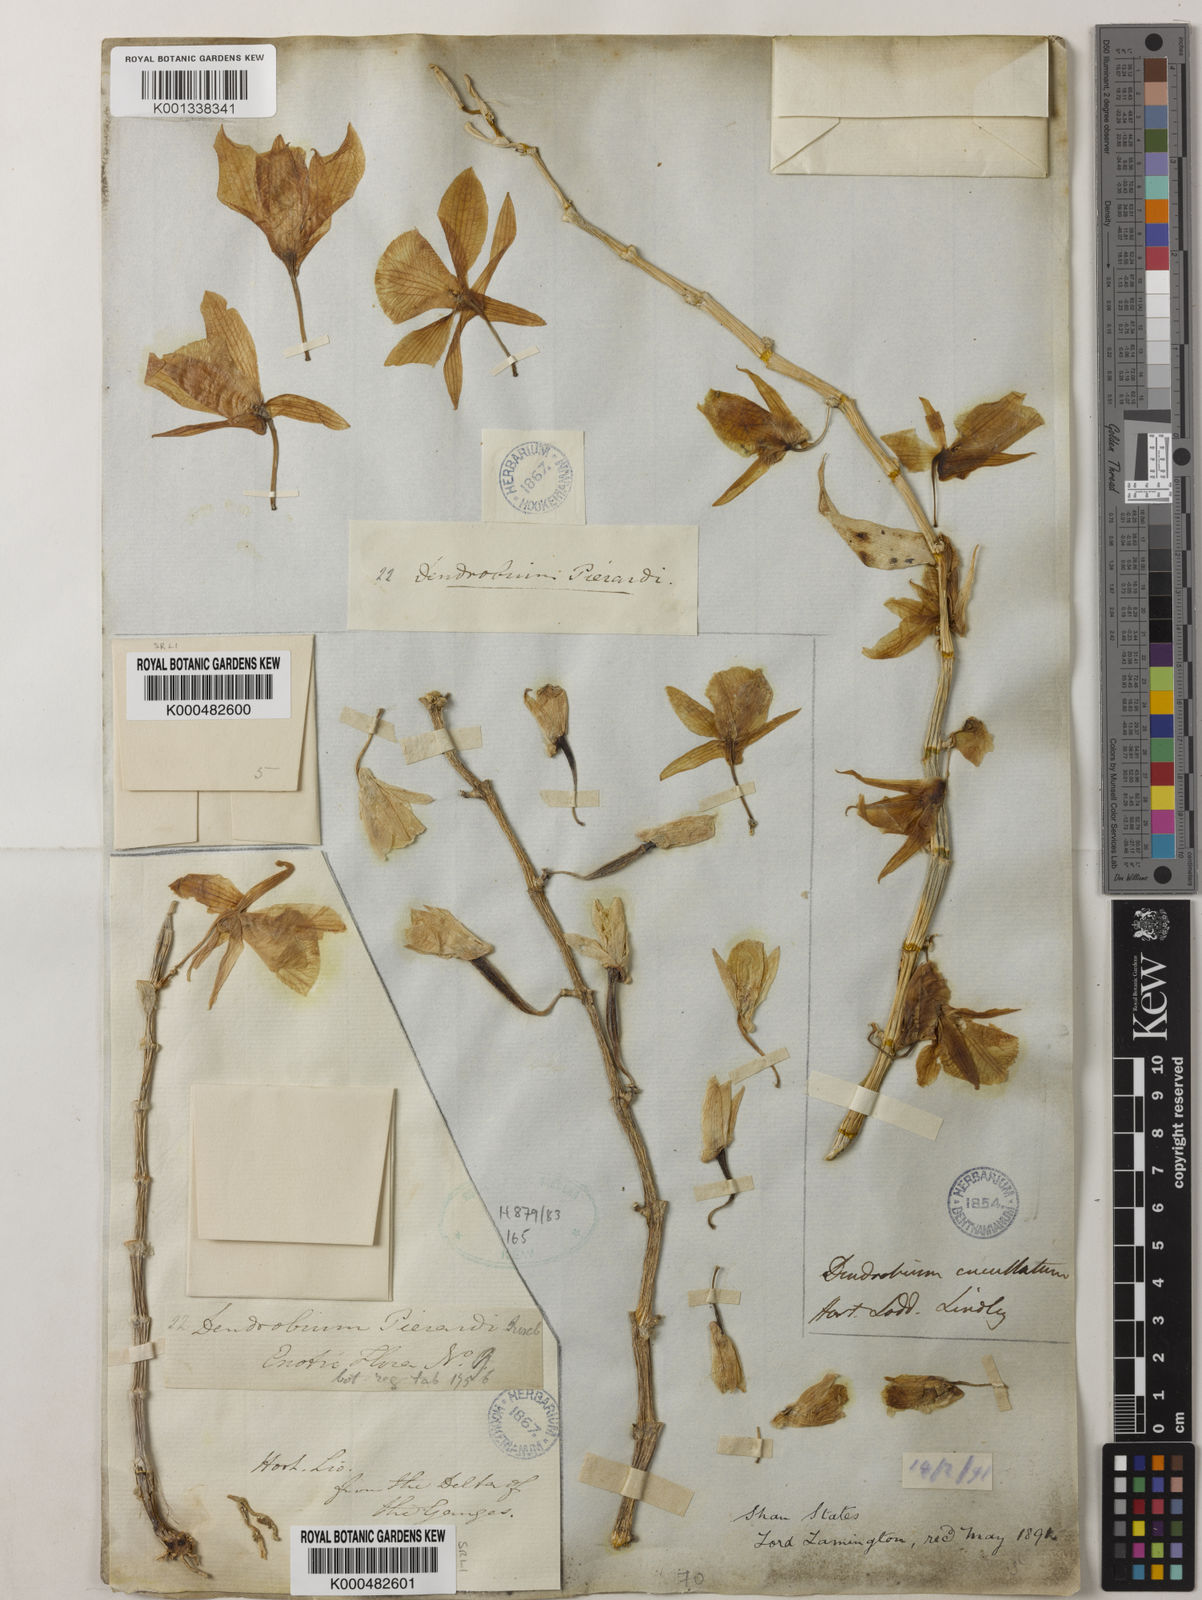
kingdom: Plantae
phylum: Tracheophyta
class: Liliopsida
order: Asparagales
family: Orchidaceae
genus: Dendrobium
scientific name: Dendrobium macrostachyum
